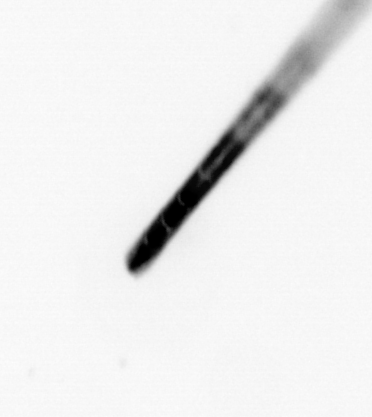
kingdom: Chromista
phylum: Ochrophyta
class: Bacillariophyceae
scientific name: Bacillariophyceae
